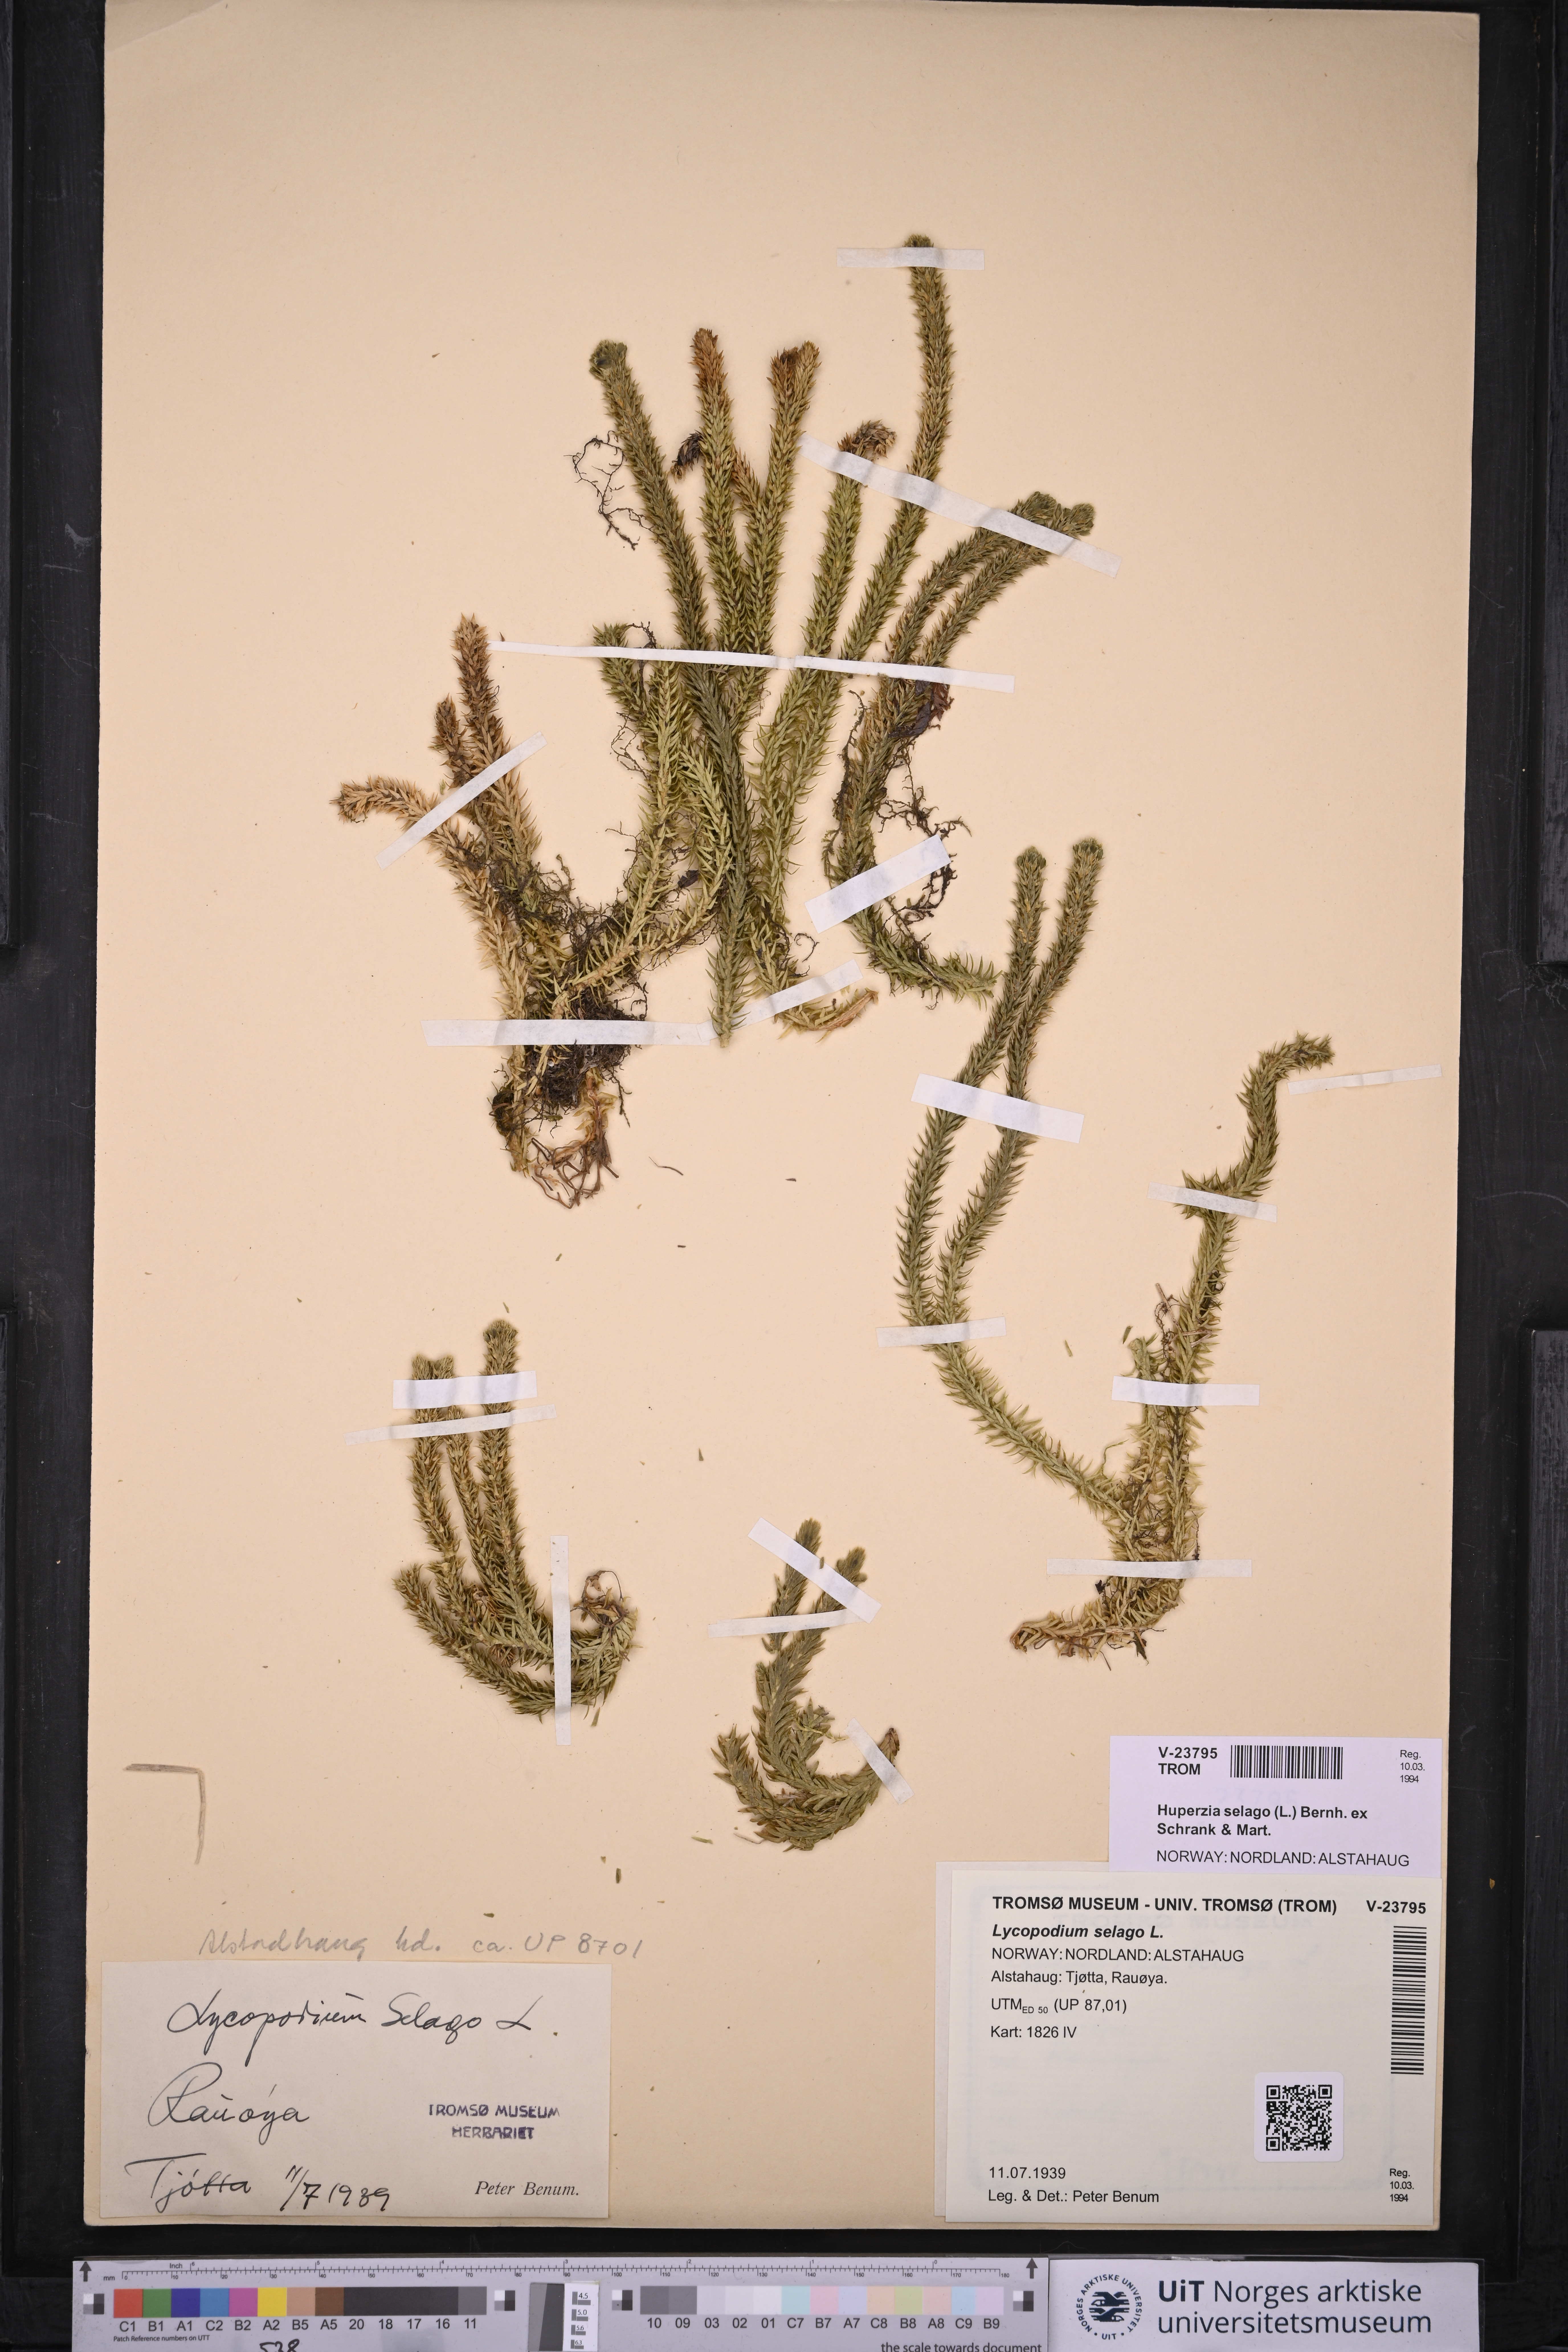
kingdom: Plantae
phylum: Tracheophyta
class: Lycopodiopsida
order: Lycopodiales
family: Lycopodiaceae
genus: Huperzia
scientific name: Huperzia selago
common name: Northern firmoss
